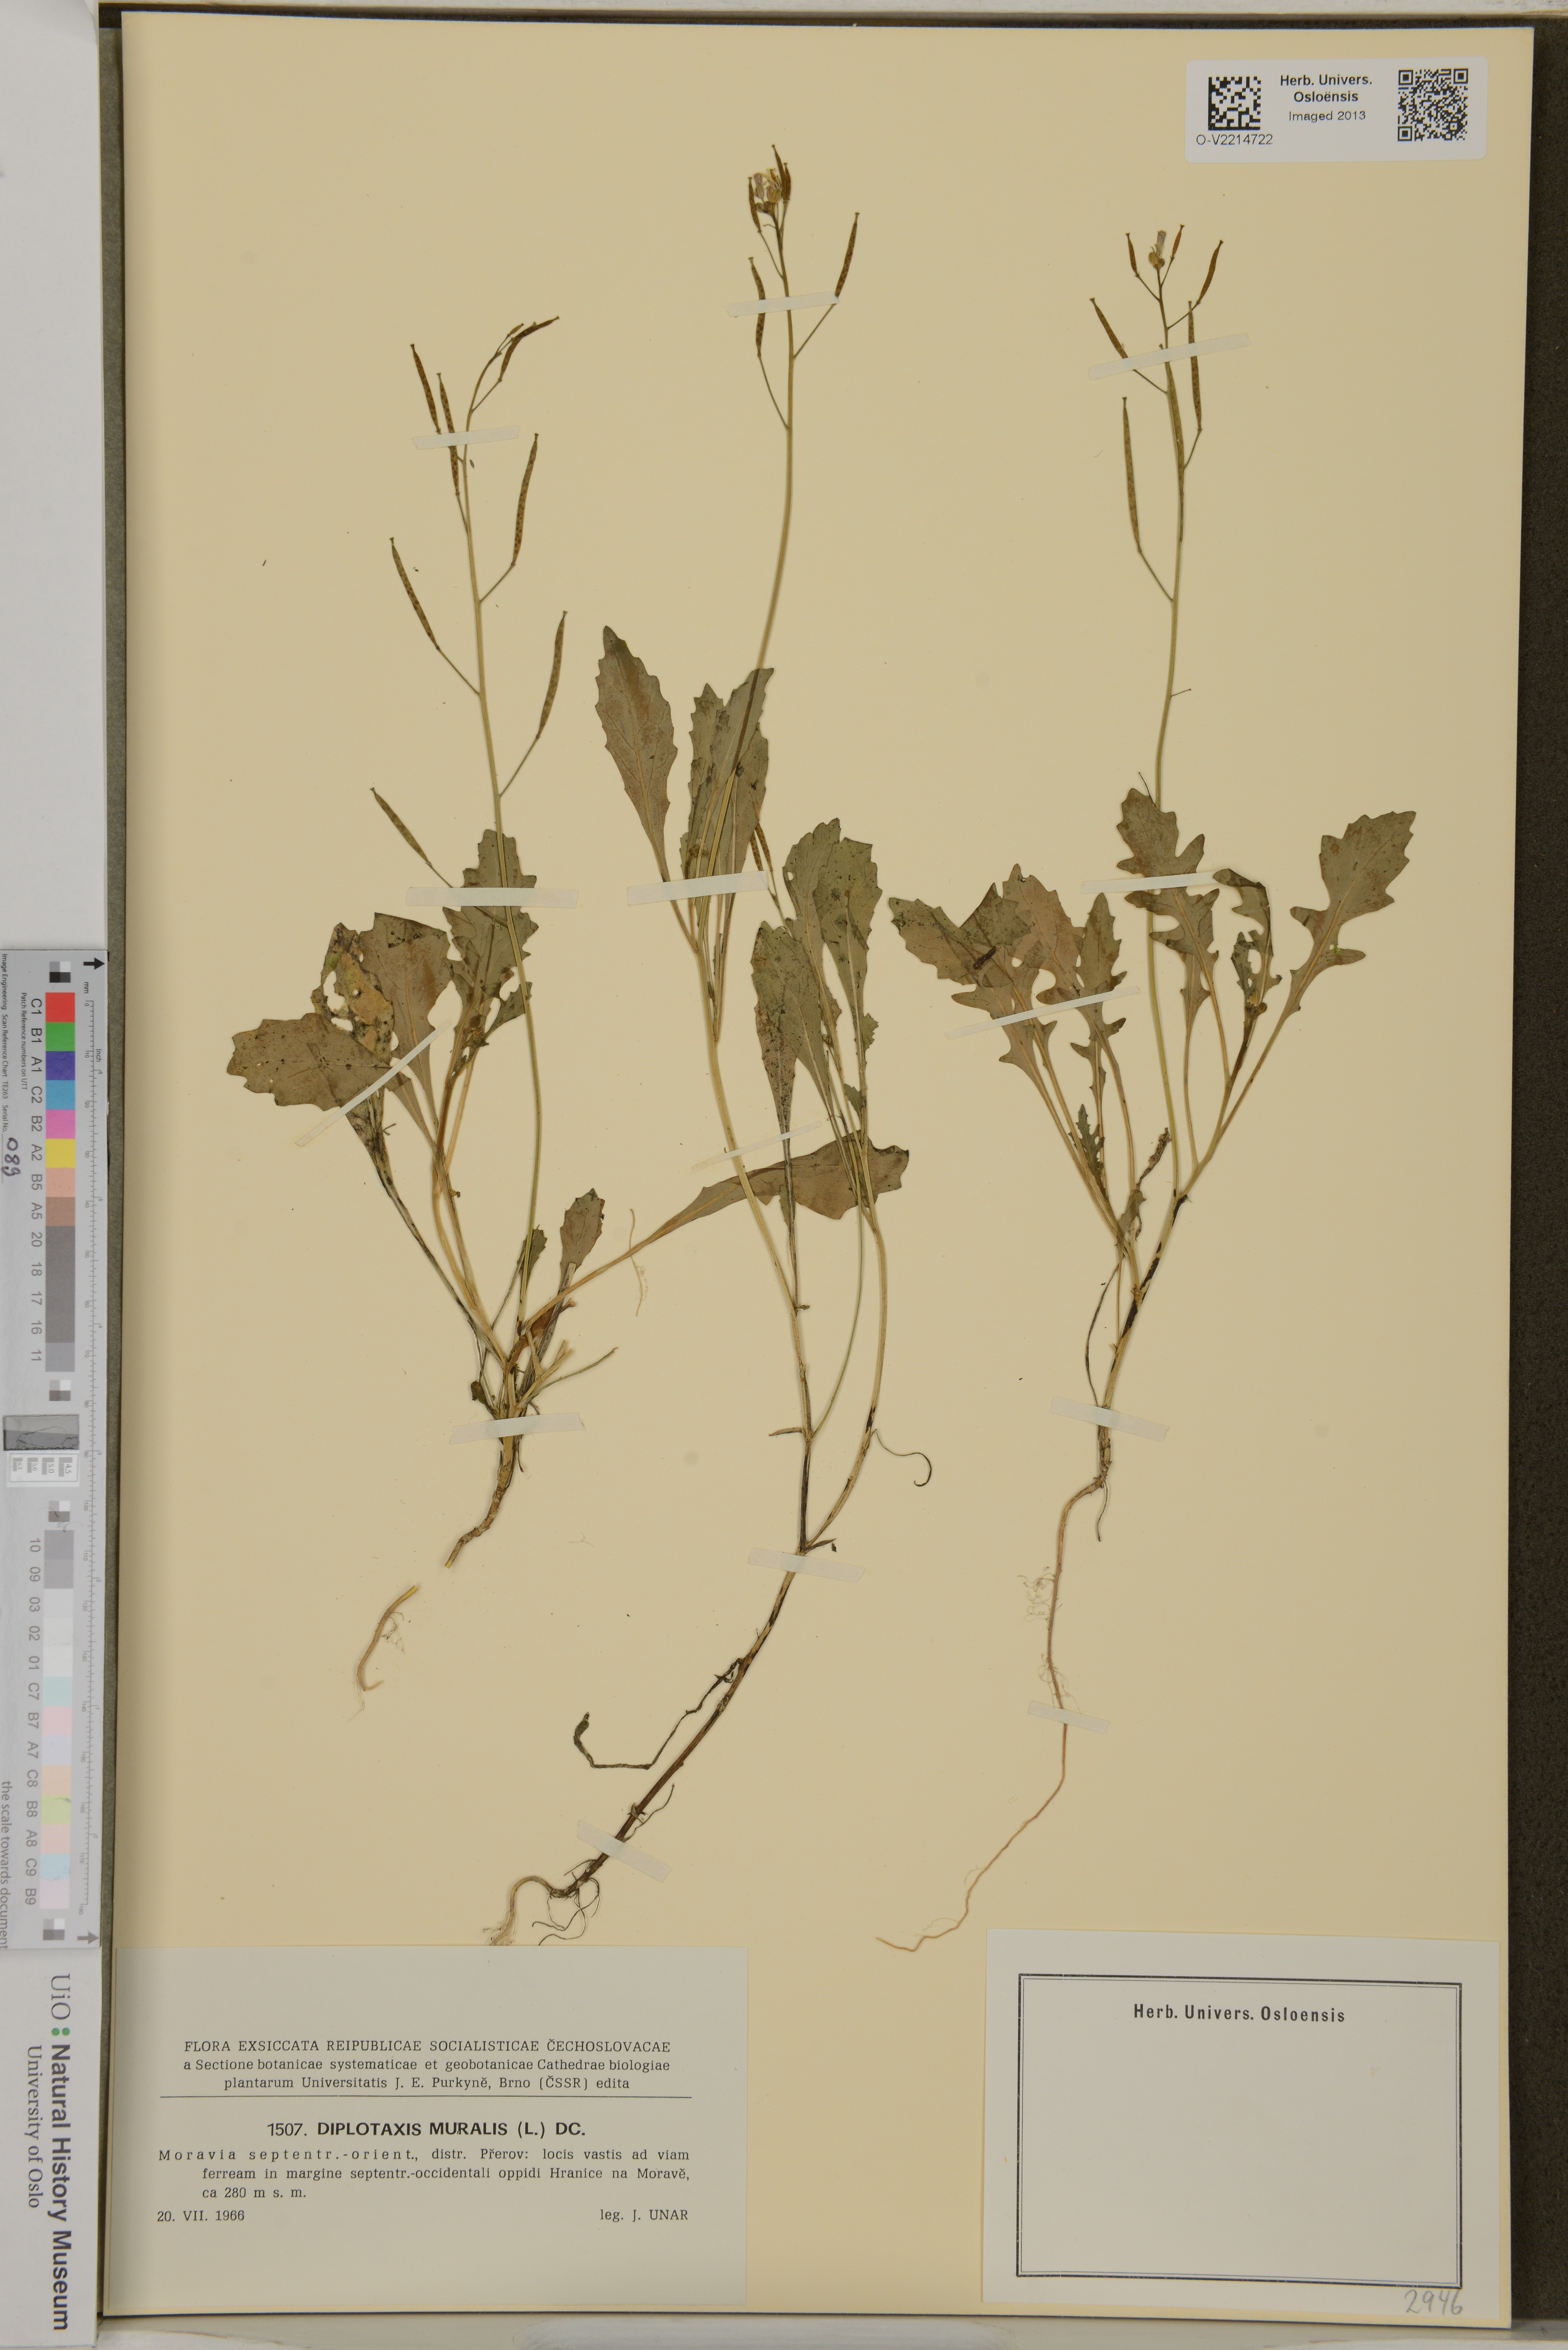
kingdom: Plantae
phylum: Tracheophyta
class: Magnoliopsida
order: Brassicales
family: Brassicaceae
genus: Diplotaxis
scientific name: Diplotaxis muralis
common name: Annual wall-rocket
